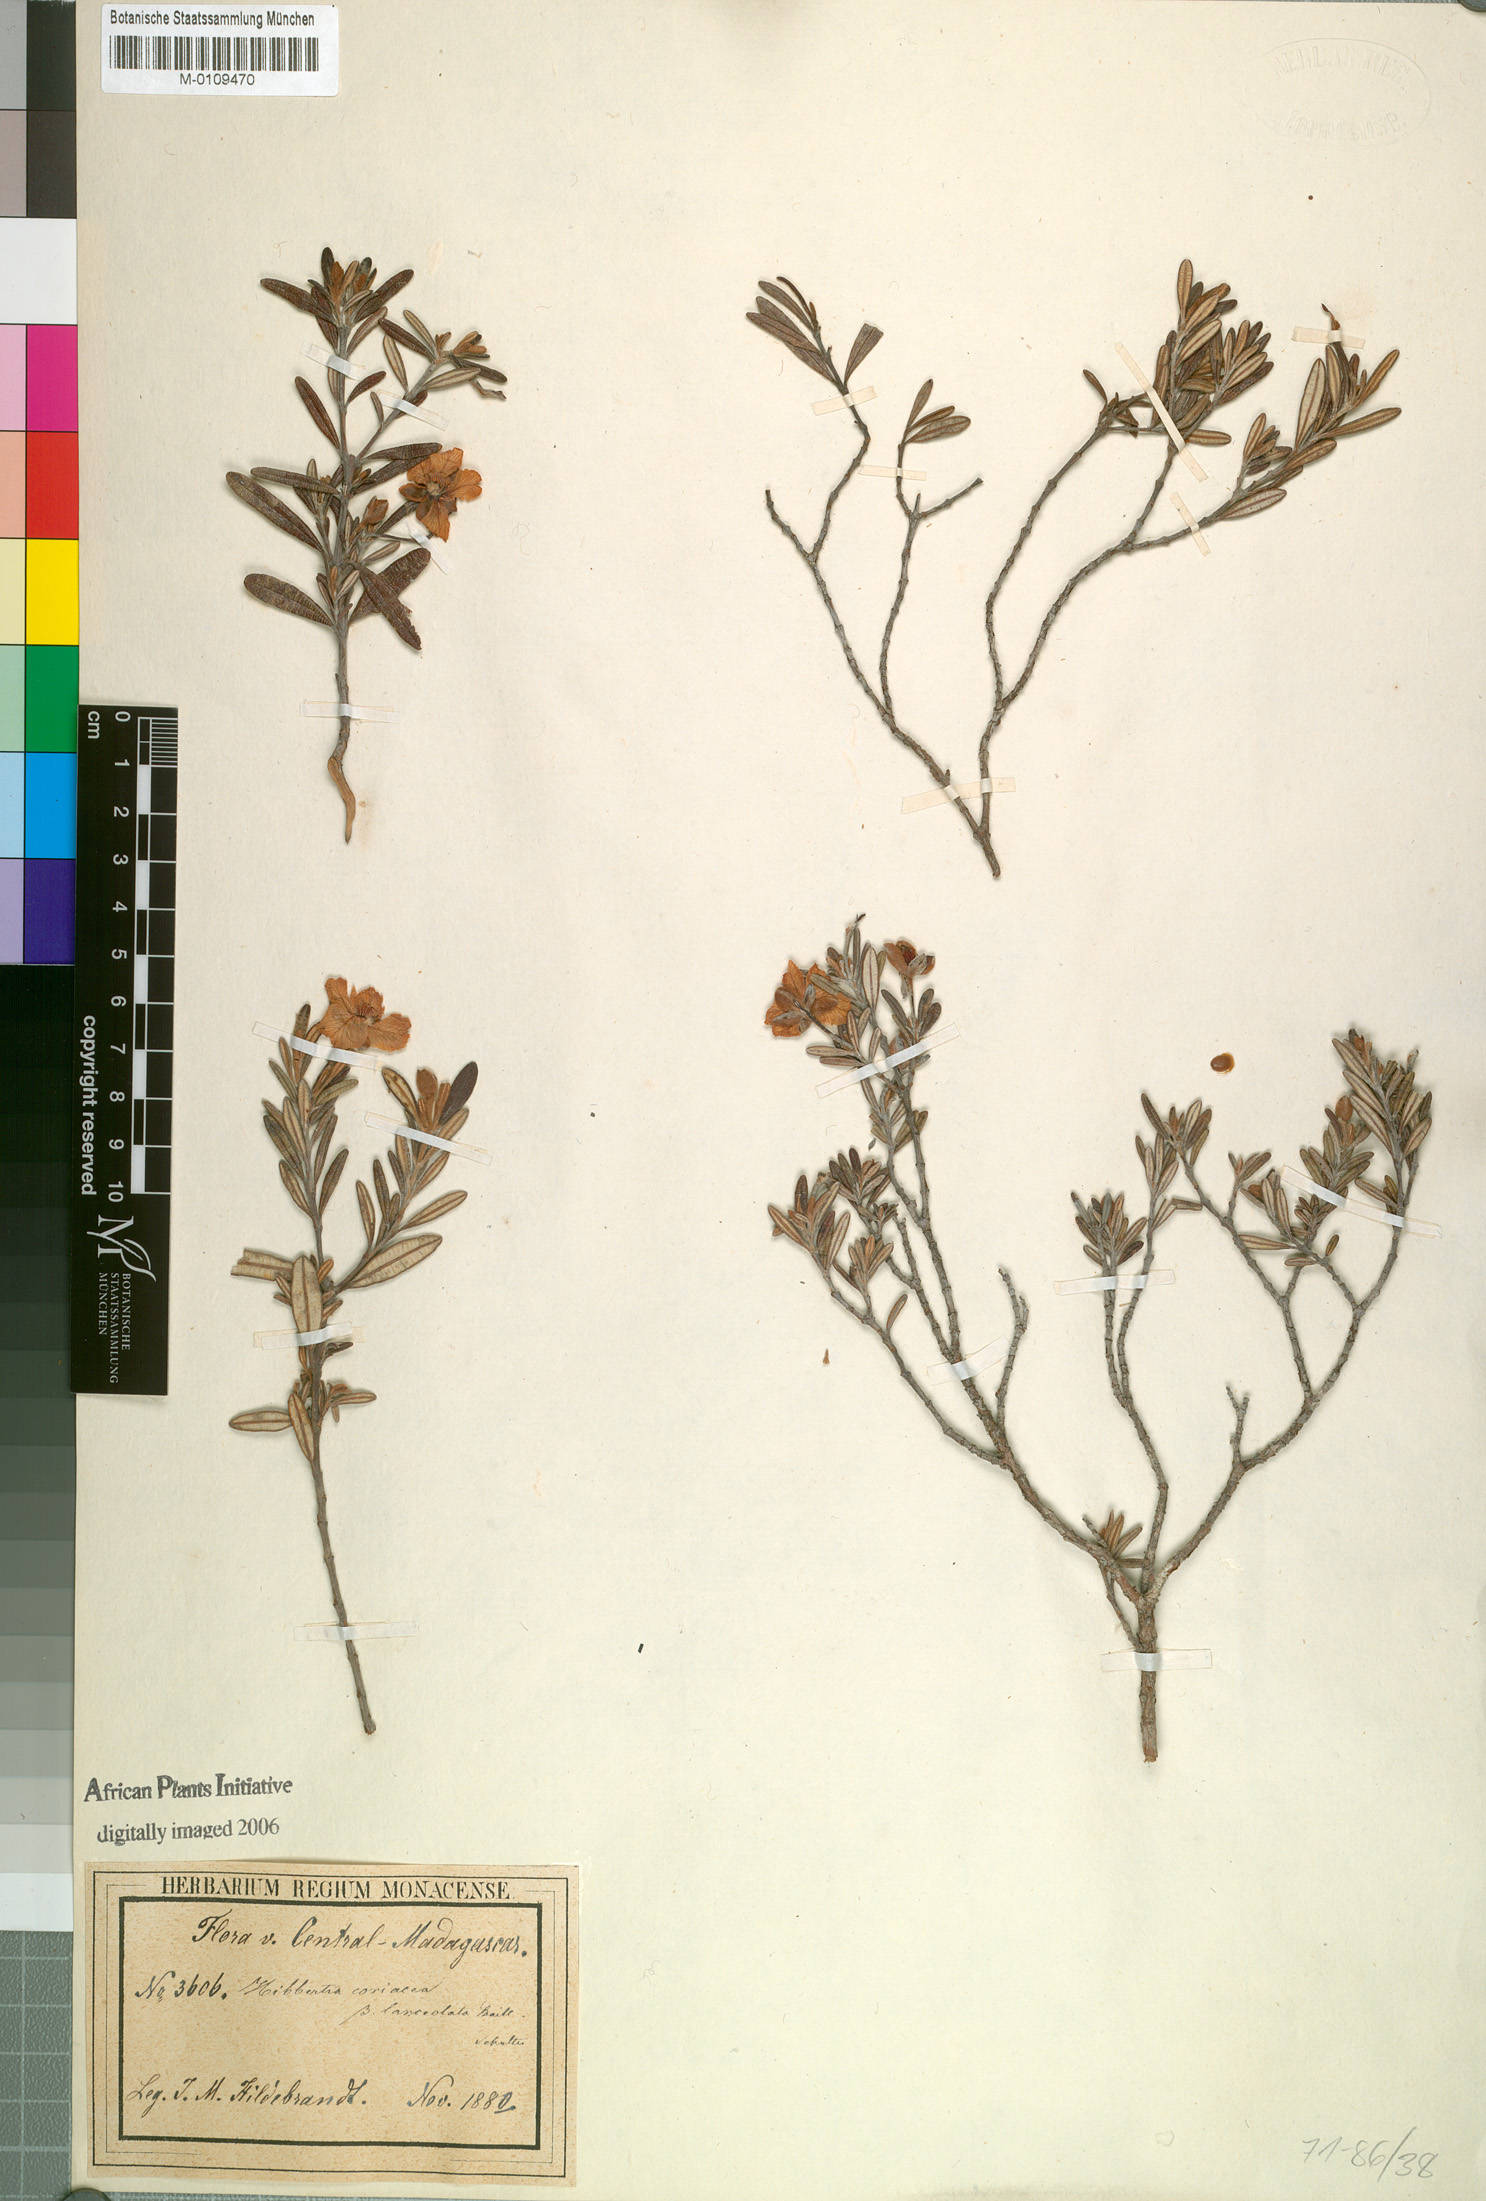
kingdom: Plantae
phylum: Tracheophyta
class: Magnoliopsida
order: Dilleniales
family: Dilleniaceae
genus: Hibbertia
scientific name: Hibbertia coriacea
